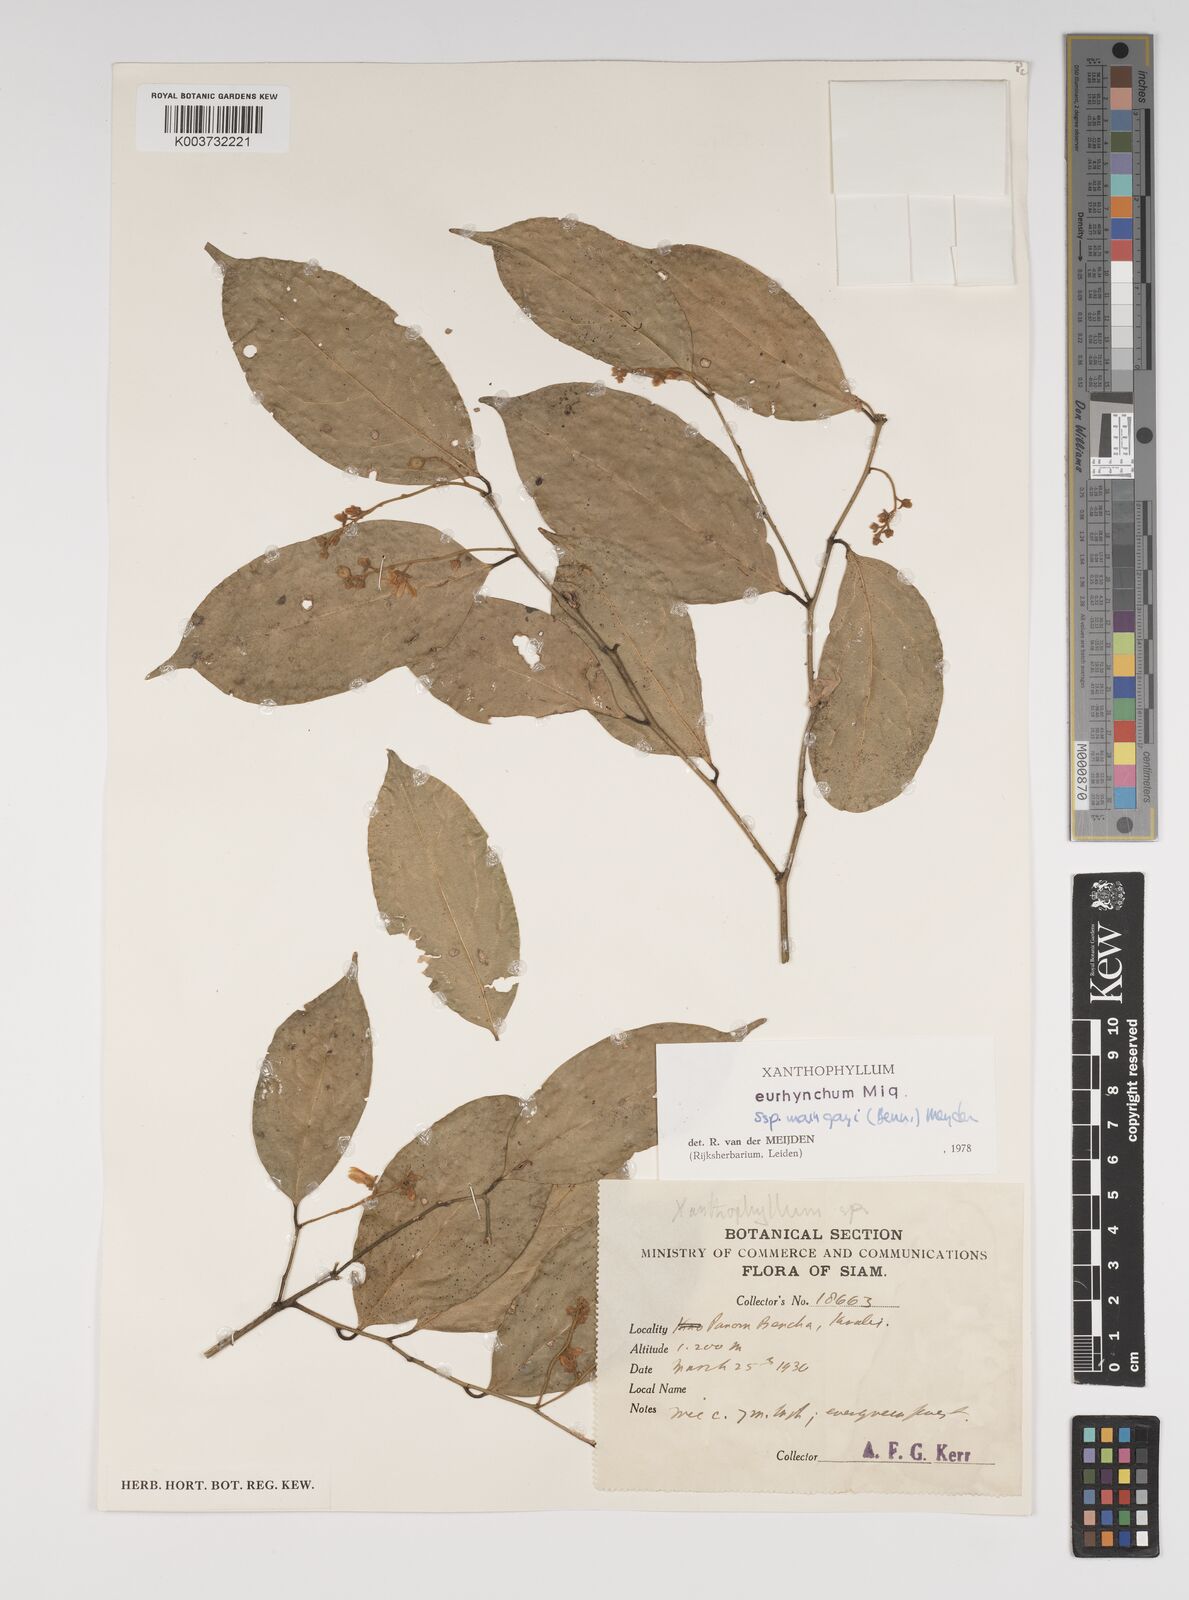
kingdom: Plantae
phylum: Tracheophyta
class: Magnoliopsida
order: Fabales
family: Polygalaceae
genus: Xanthophyllum
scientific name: Xanthophyllum eurhynchum
